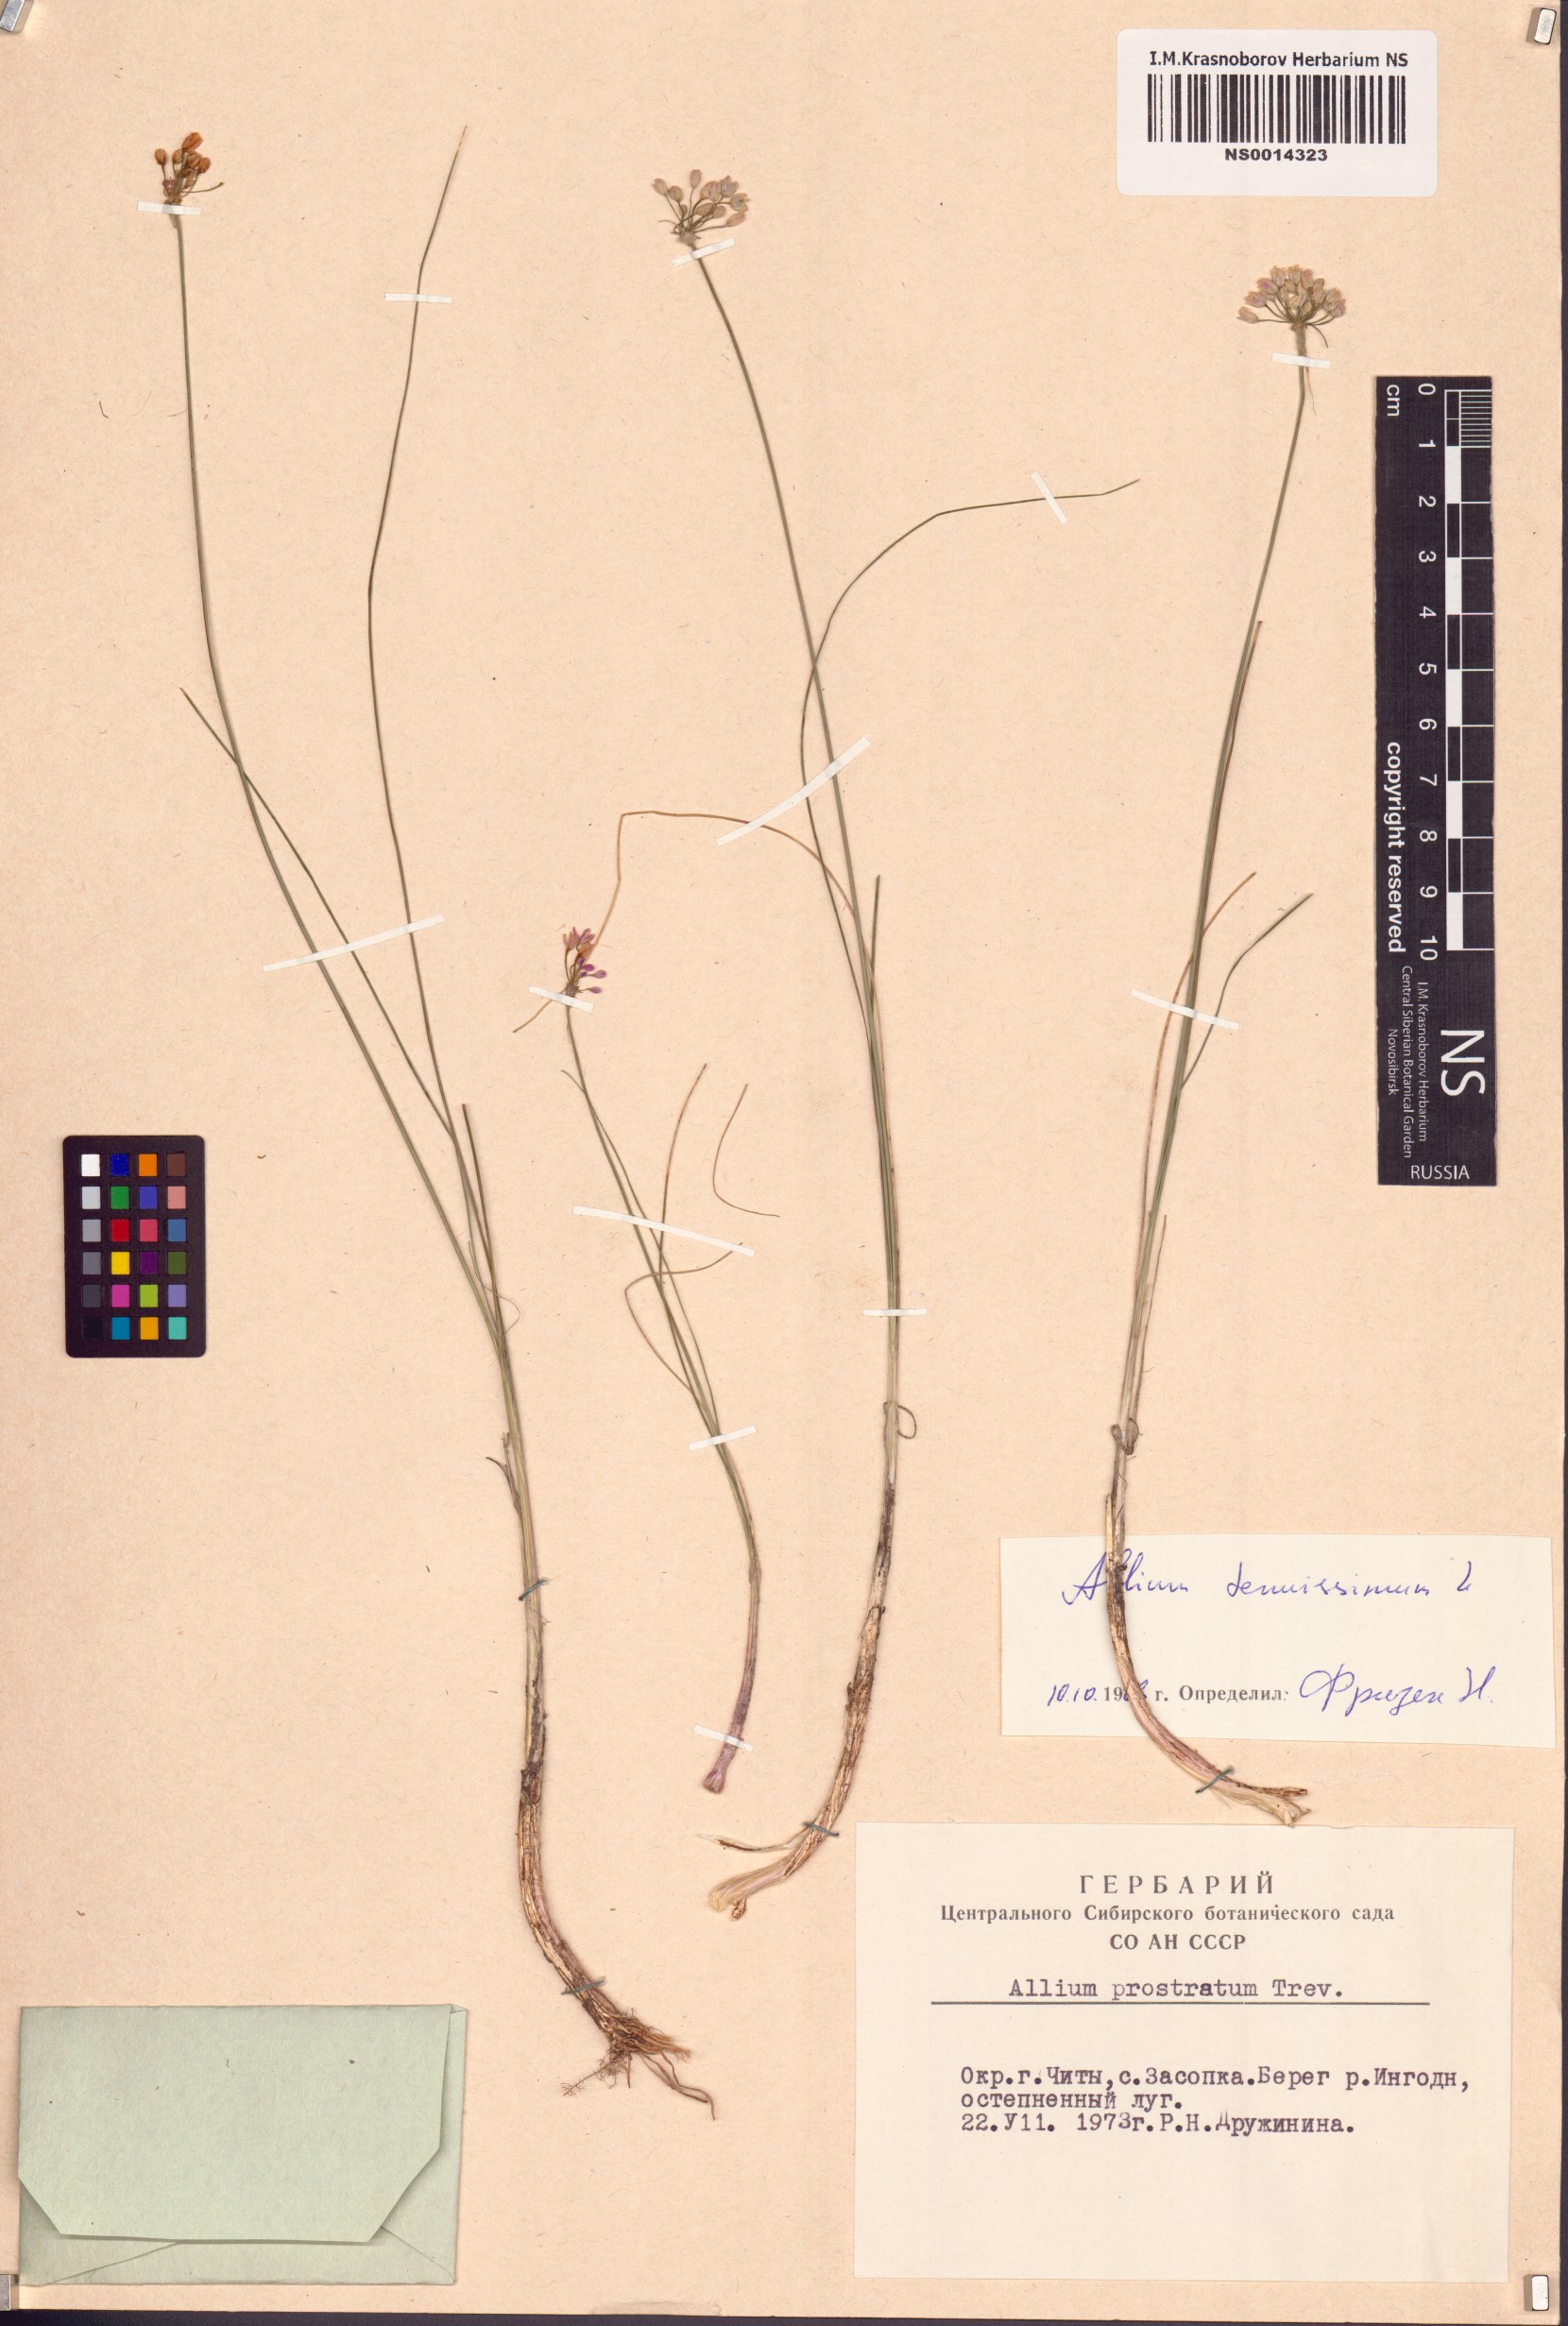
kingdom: Plantae
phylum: Tracheophyta
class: Liliopsida
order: Asparagales
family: Amaryllidaceae
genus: Allium
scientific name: Allium tenuissimum
